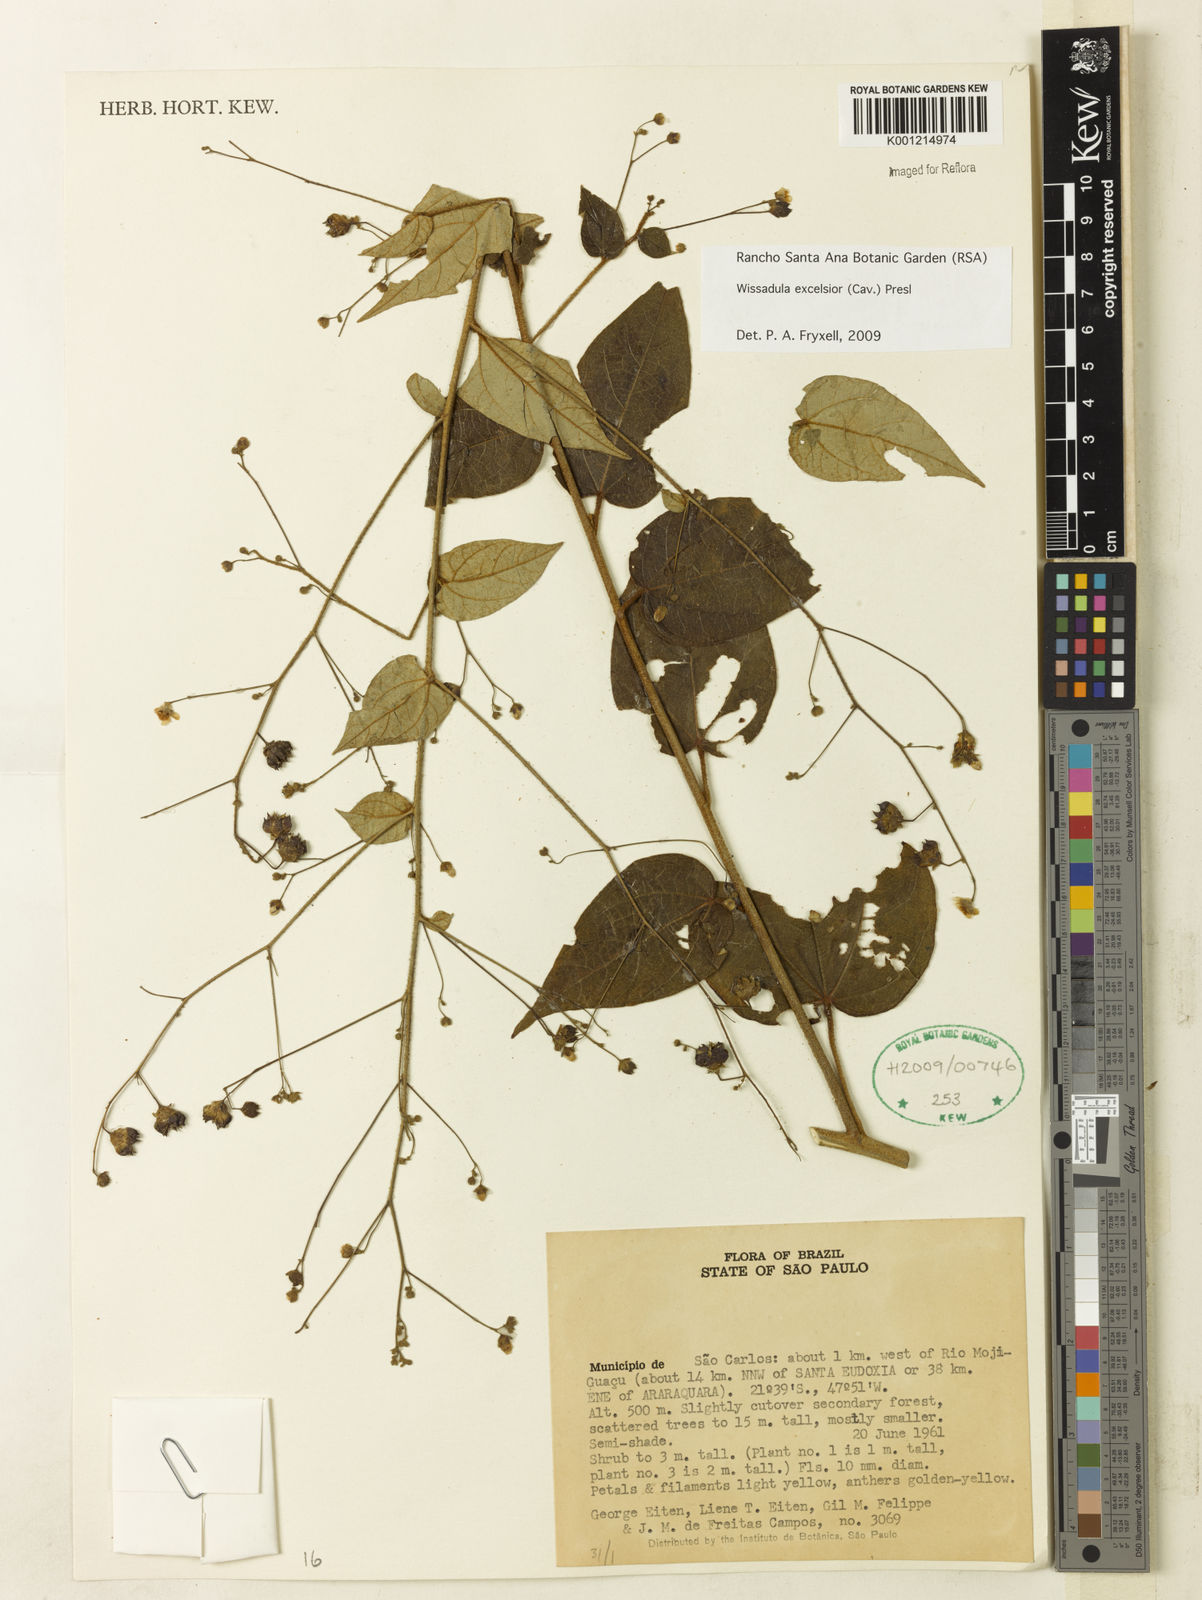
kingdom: Plantae
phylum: Tracheophyta
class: Magnoliopsida
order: Malvales
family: Malvaceae
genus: Wissadula
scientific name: Wissadula excelsior
